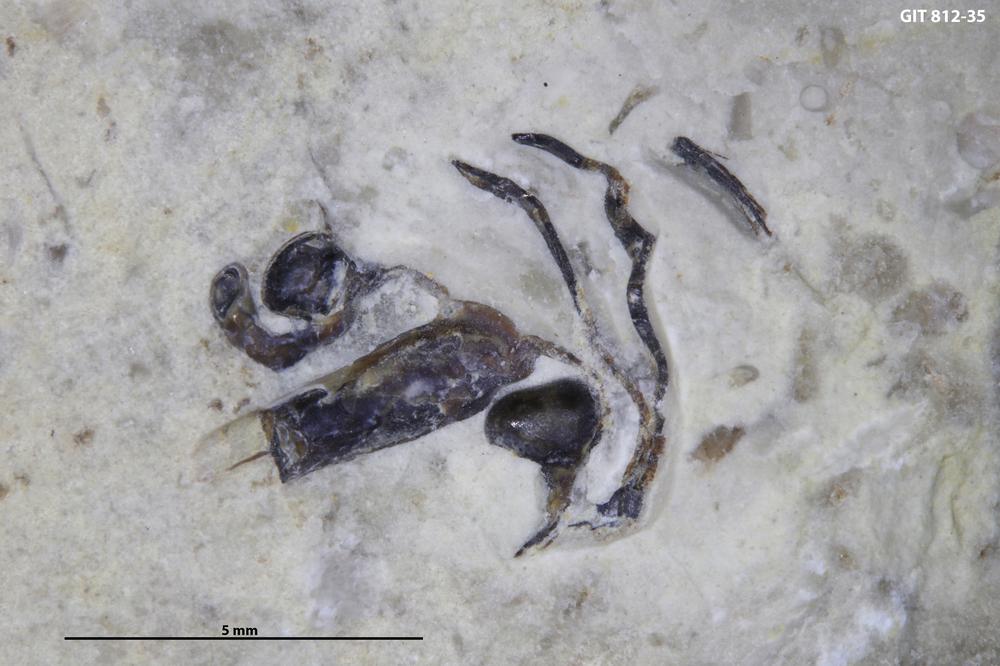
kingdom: Animalia
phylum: Cnidaria
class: Scyphozoa
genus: Palaenigma
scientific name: Palaenigma
